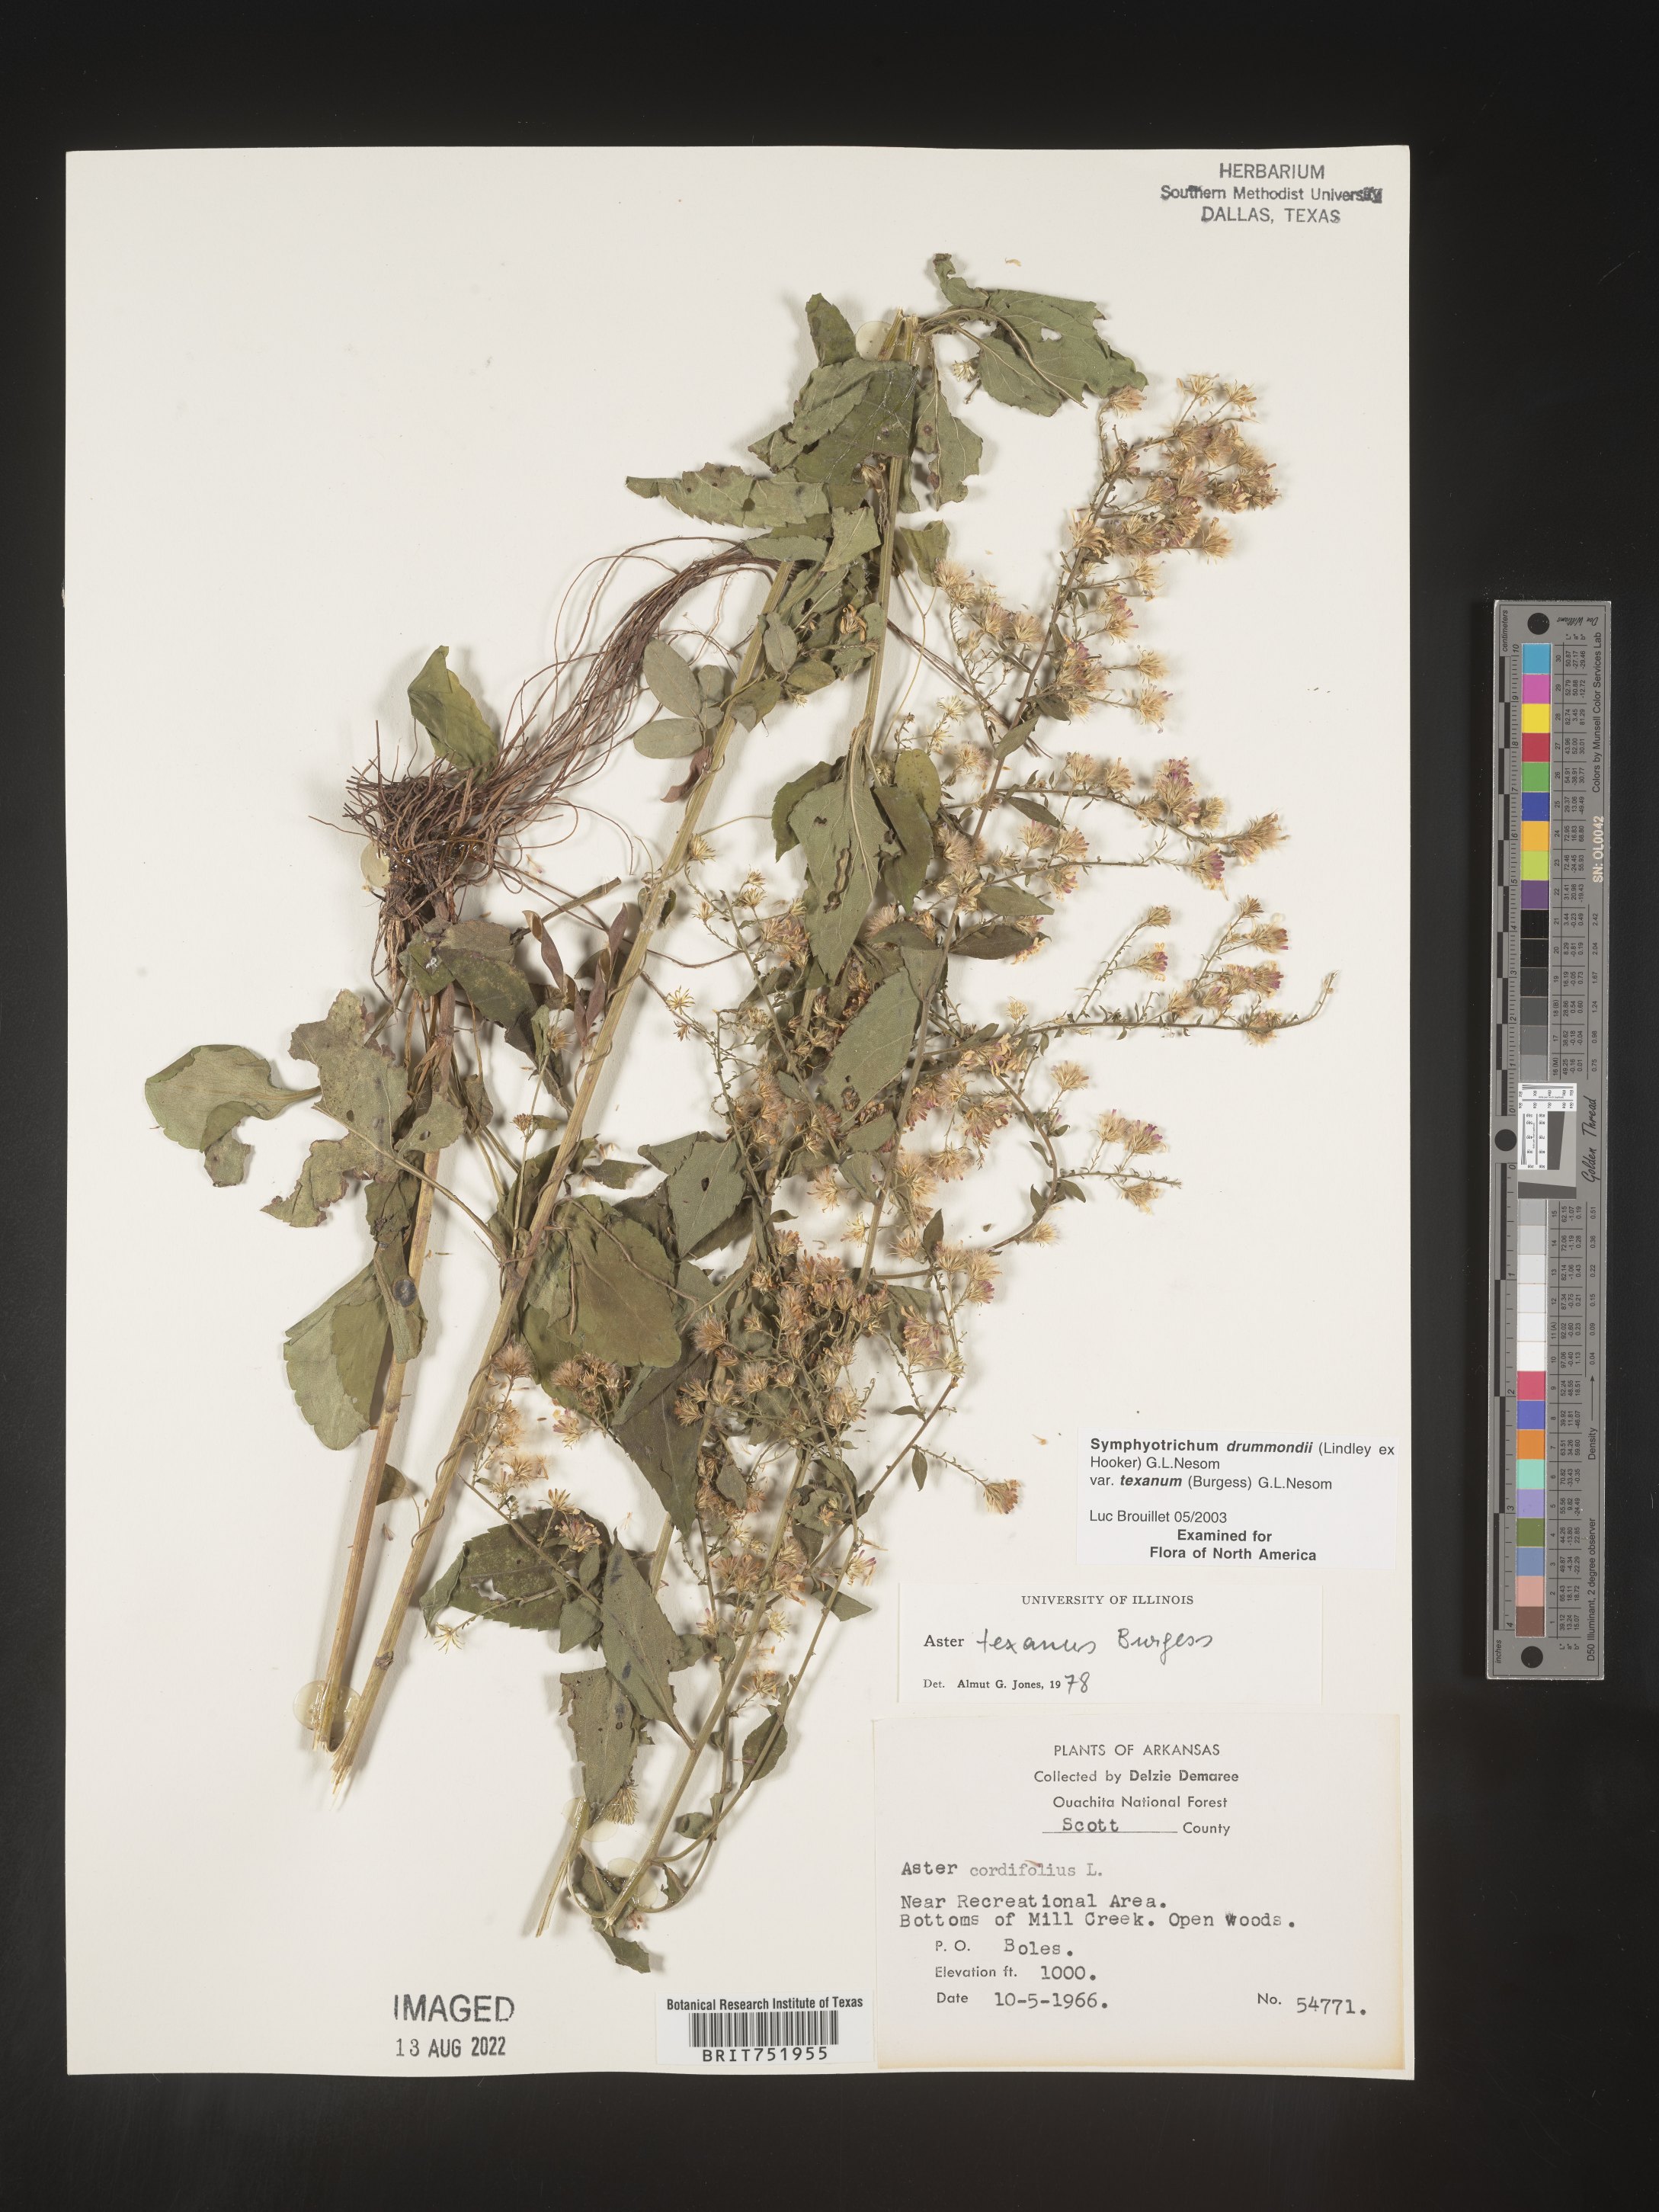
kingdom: Plantae
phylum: Tracheophyta
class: Magnoliopsida
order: Asterales
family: Asteraceae
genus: Symphyotrichum
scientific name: Symphyotrichum drummondii
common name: Drummond's aster
